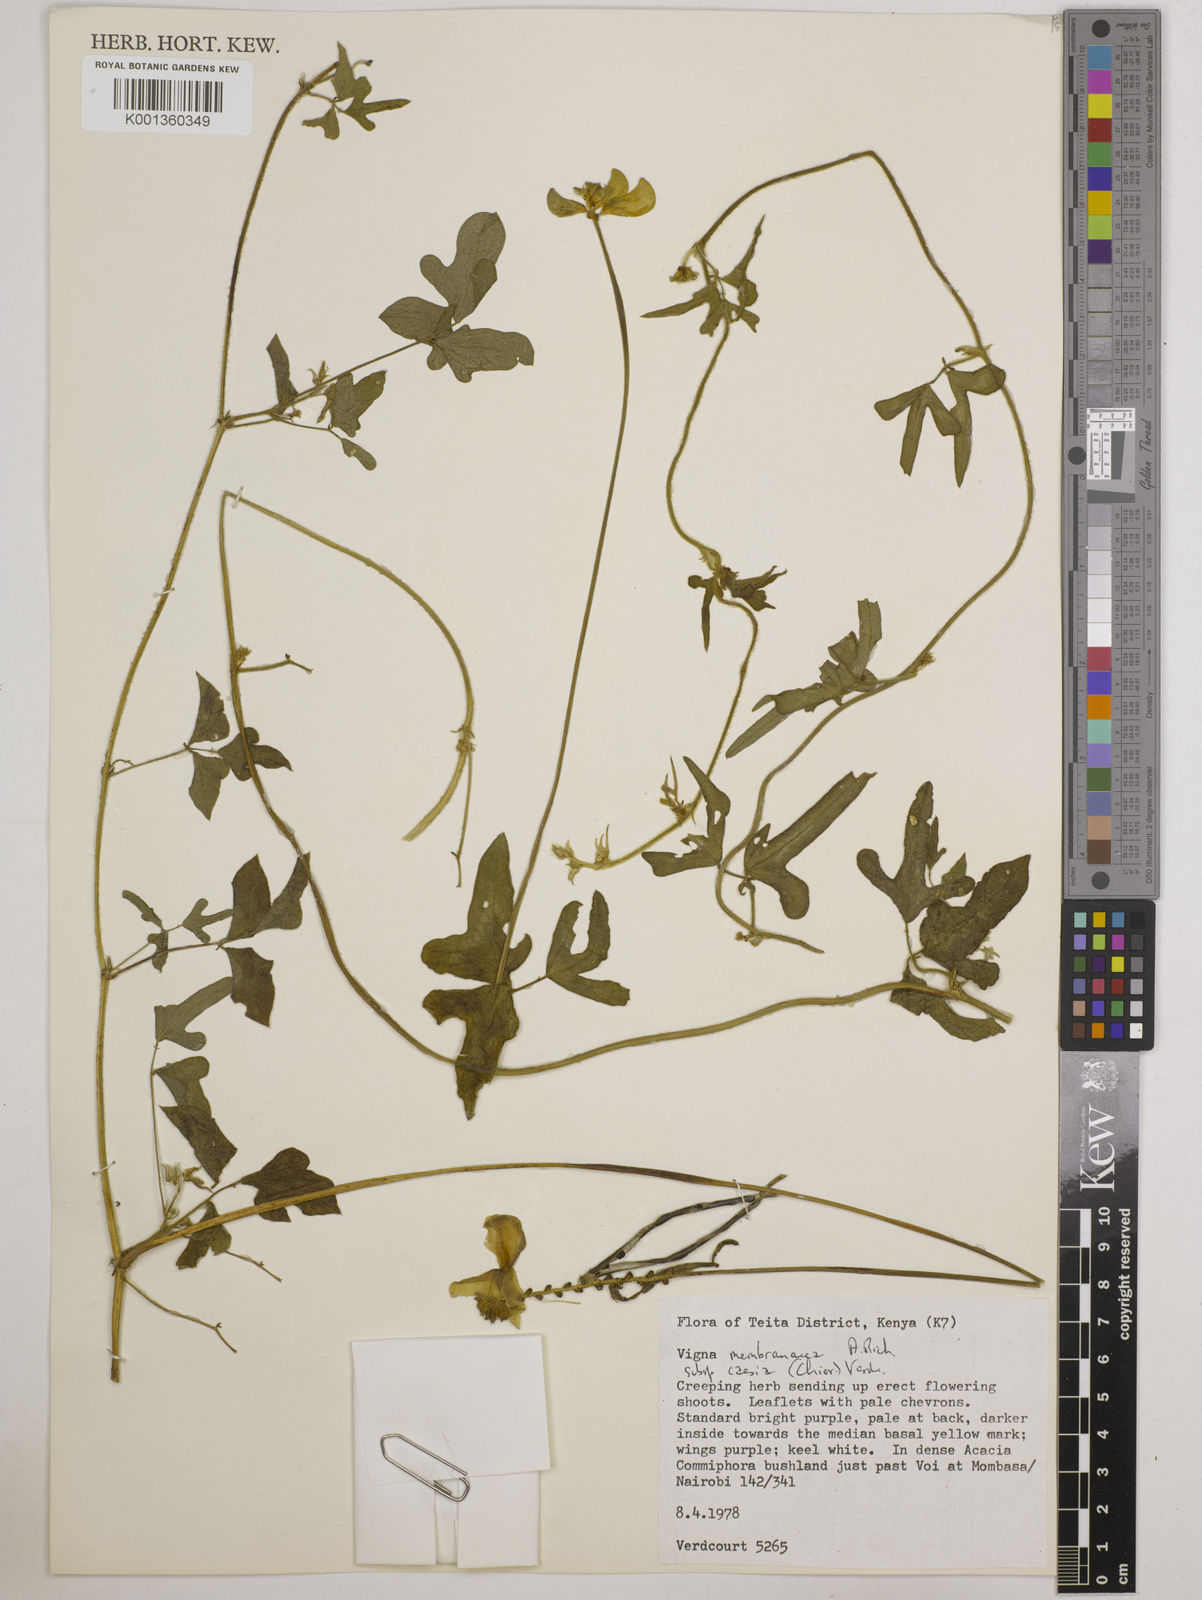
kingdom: Plantae
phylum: Tracheophyta
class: Magnoliopsida
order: Fabales
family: Fabaceae
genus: Vigna
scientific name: Vigna
